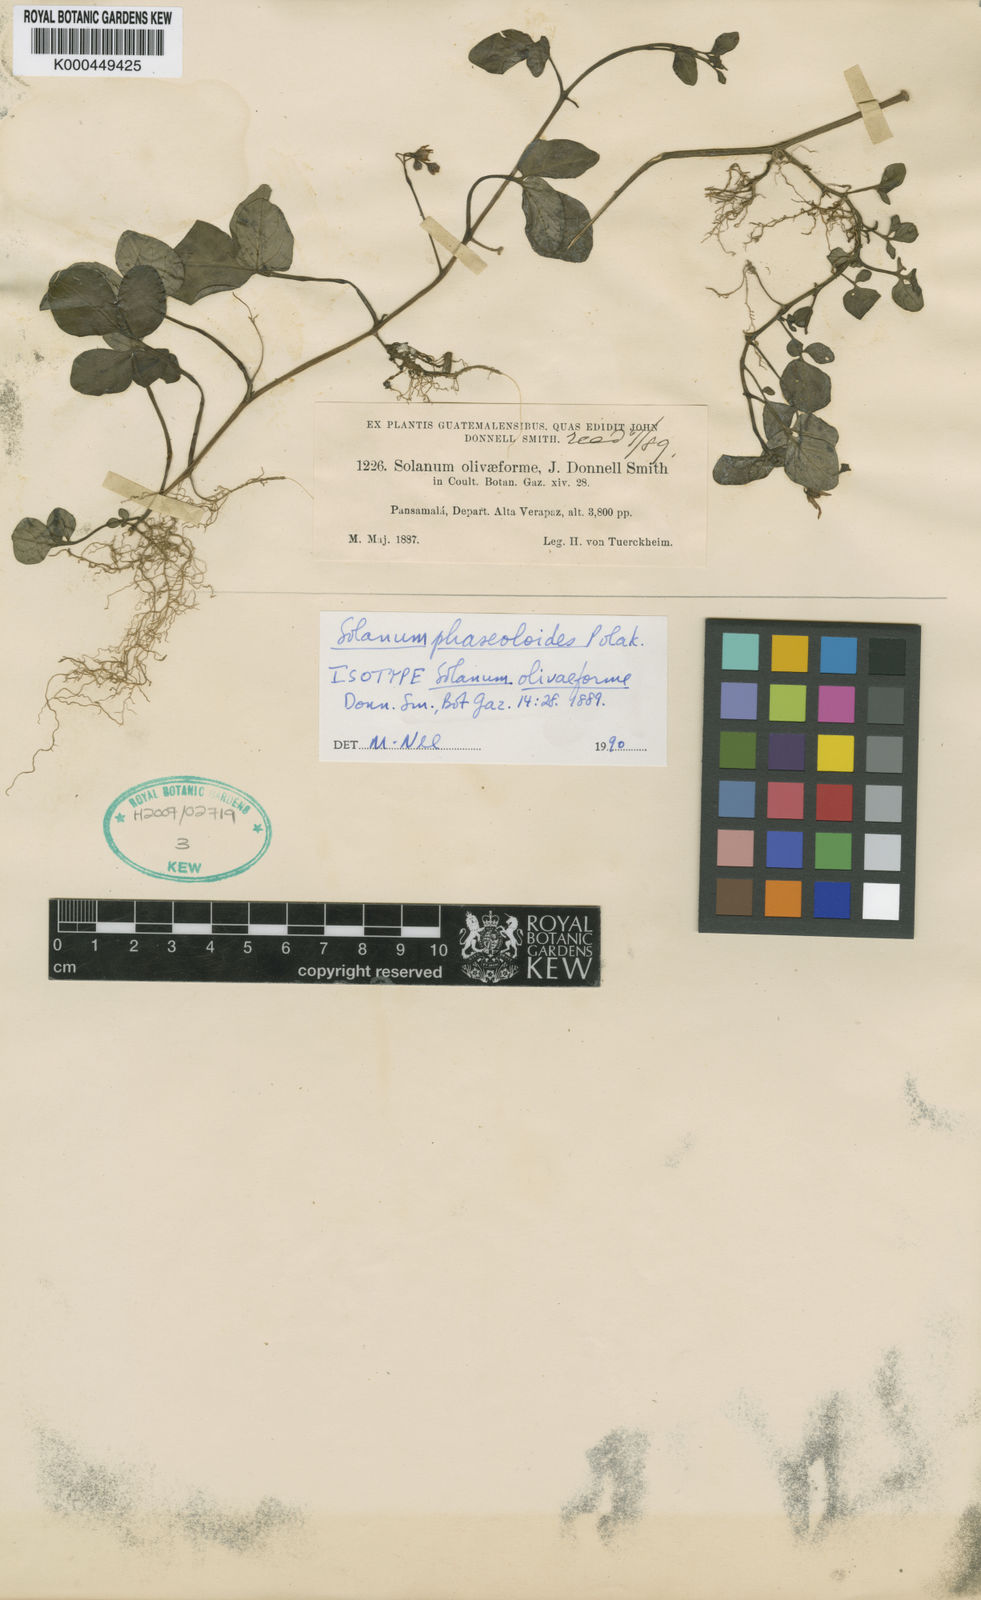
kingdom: Plantae
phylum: Tracheophyta
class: Magnoliopsida
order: Solanales
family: Solanaceae
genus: Solanum
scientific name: Solanum phaseoloides
